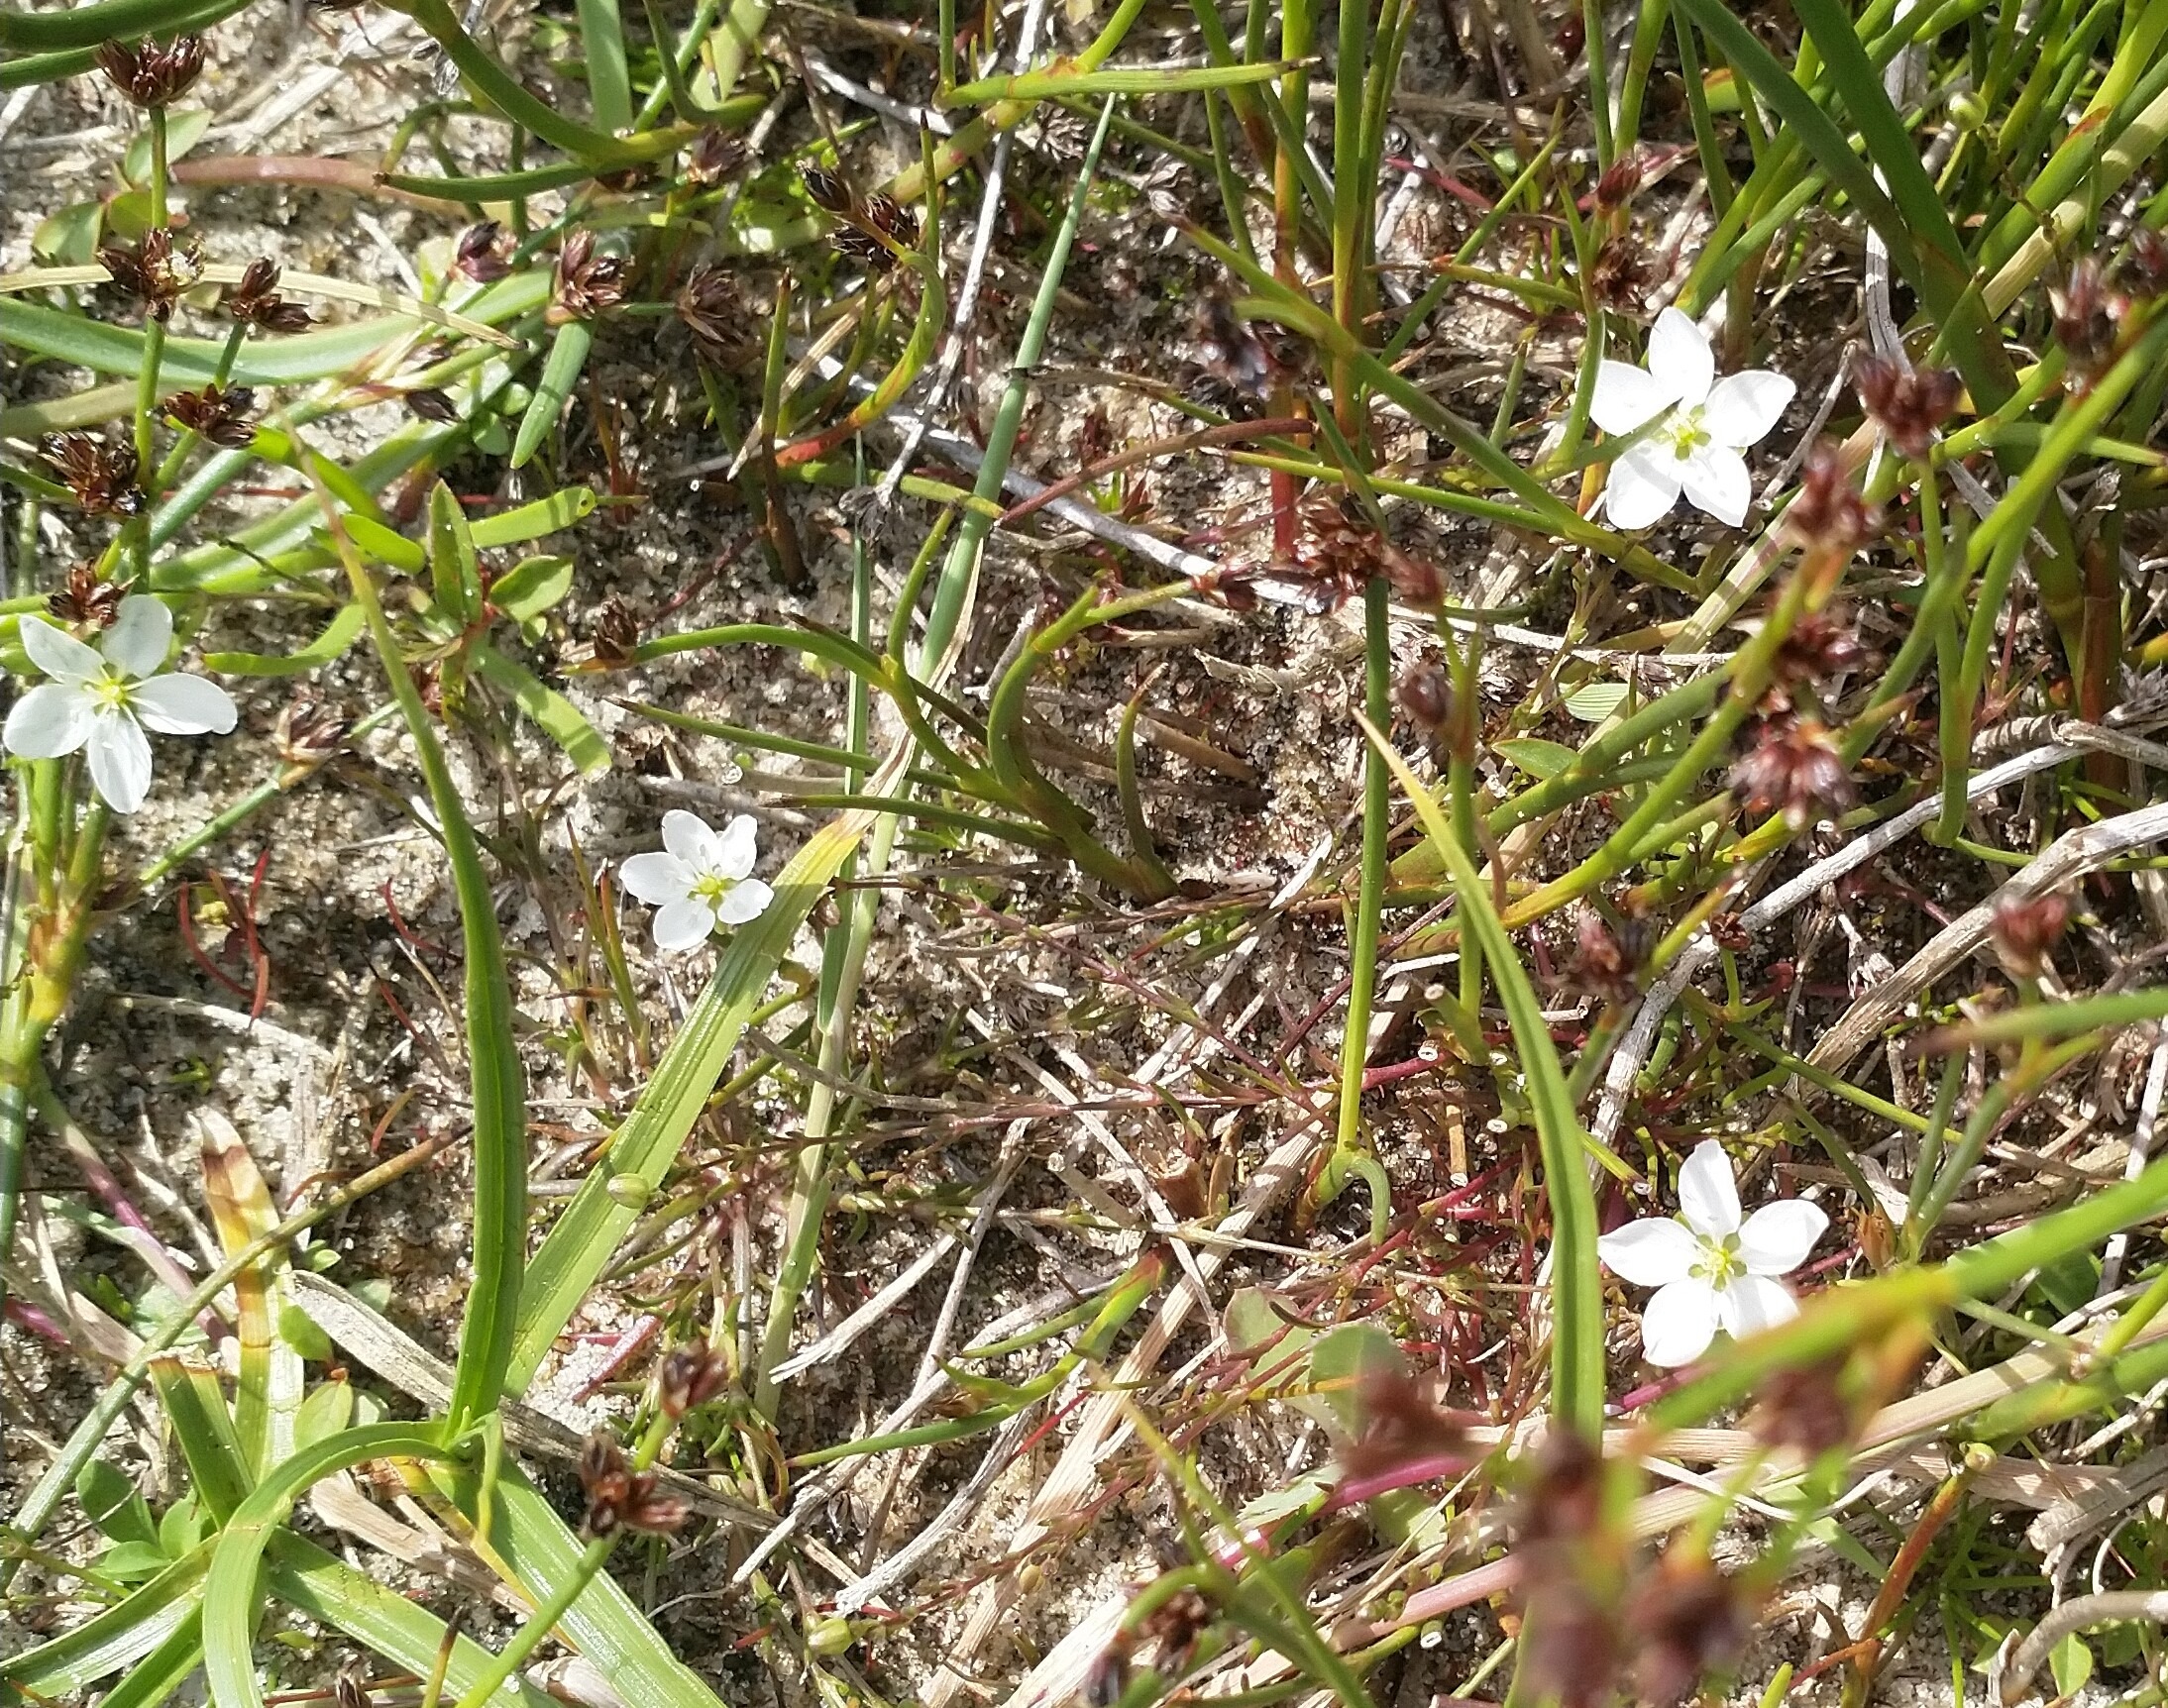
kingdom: Plantae
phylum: Tracheophyta
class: Magnoliopsida
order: Caryophyllales
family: Caryophyllaceae
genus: Sagina
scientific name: Sagina nodosa
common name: Knude-firling
